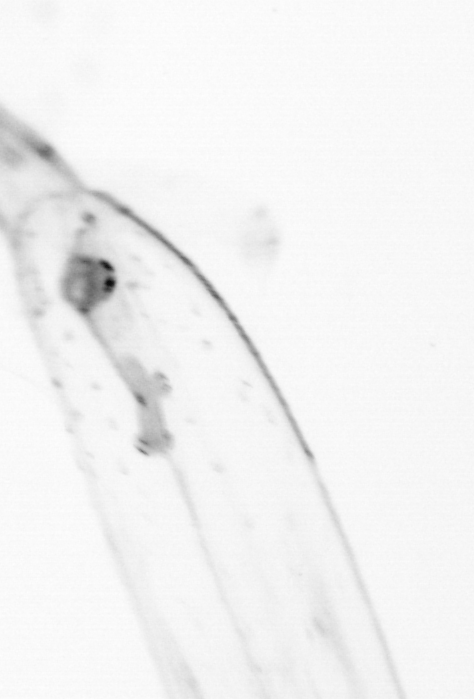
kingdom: Animalia
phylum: Chaetognatha
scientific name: Chaetognatha
